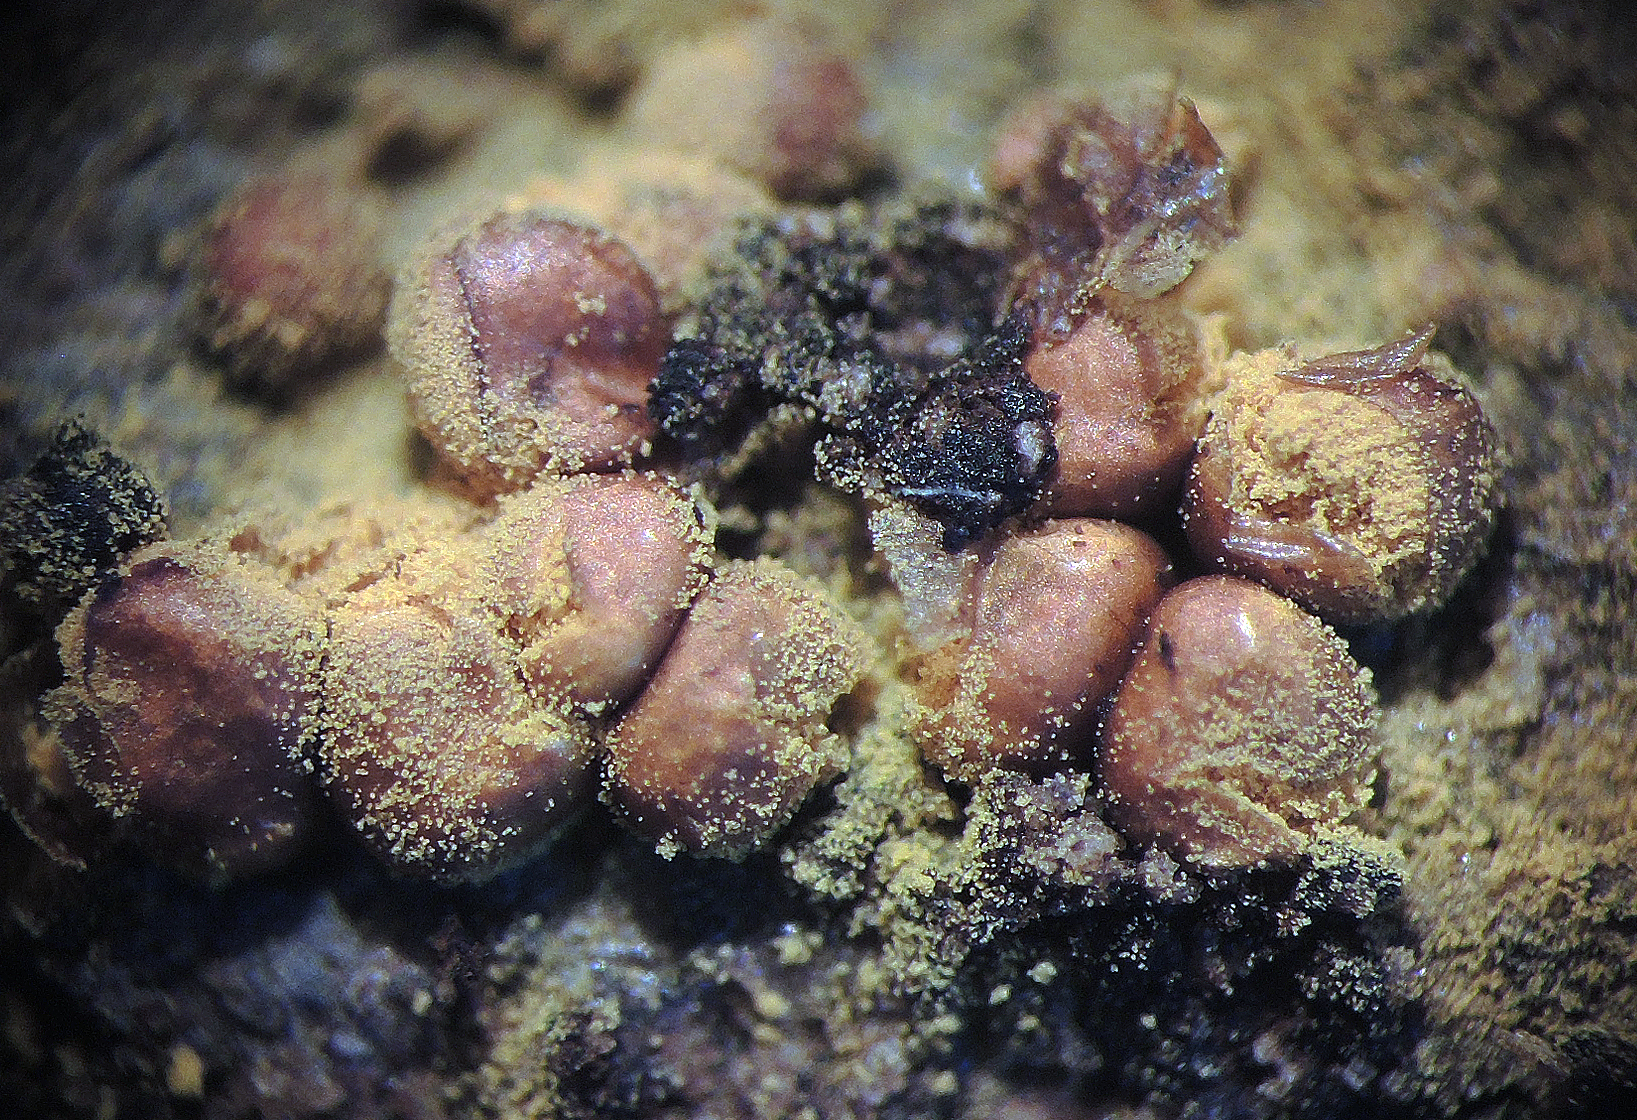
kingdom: Protozoa
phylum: Mycetozoa
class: Myxomycetes
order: Trichiales
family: Trichiaceae
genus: Perichaena
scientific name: Perichaena corticalis
